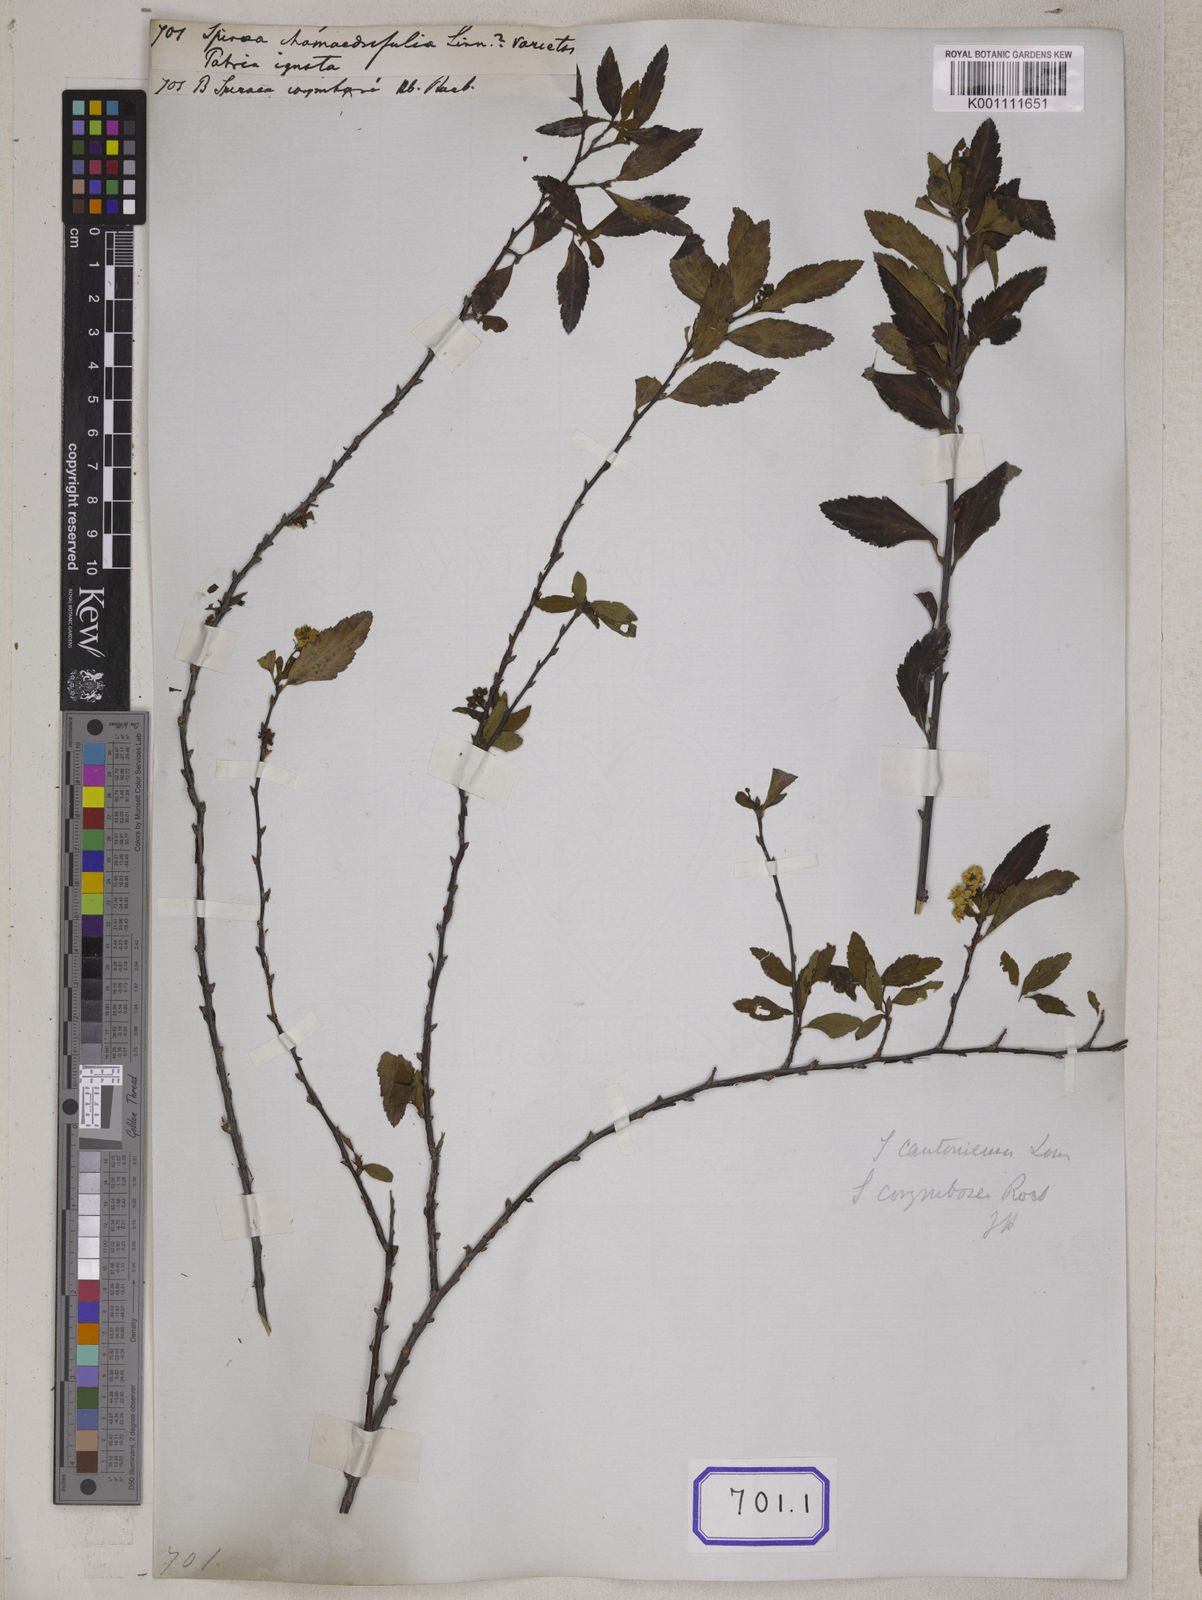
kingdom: Plantae
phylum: Tracheophyta
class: Magnoliopsida
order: Rosales
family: Rosaceae
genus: Spiraea
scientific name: Spiraea chamaedryfolia
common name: Elm-leaved spiraea
